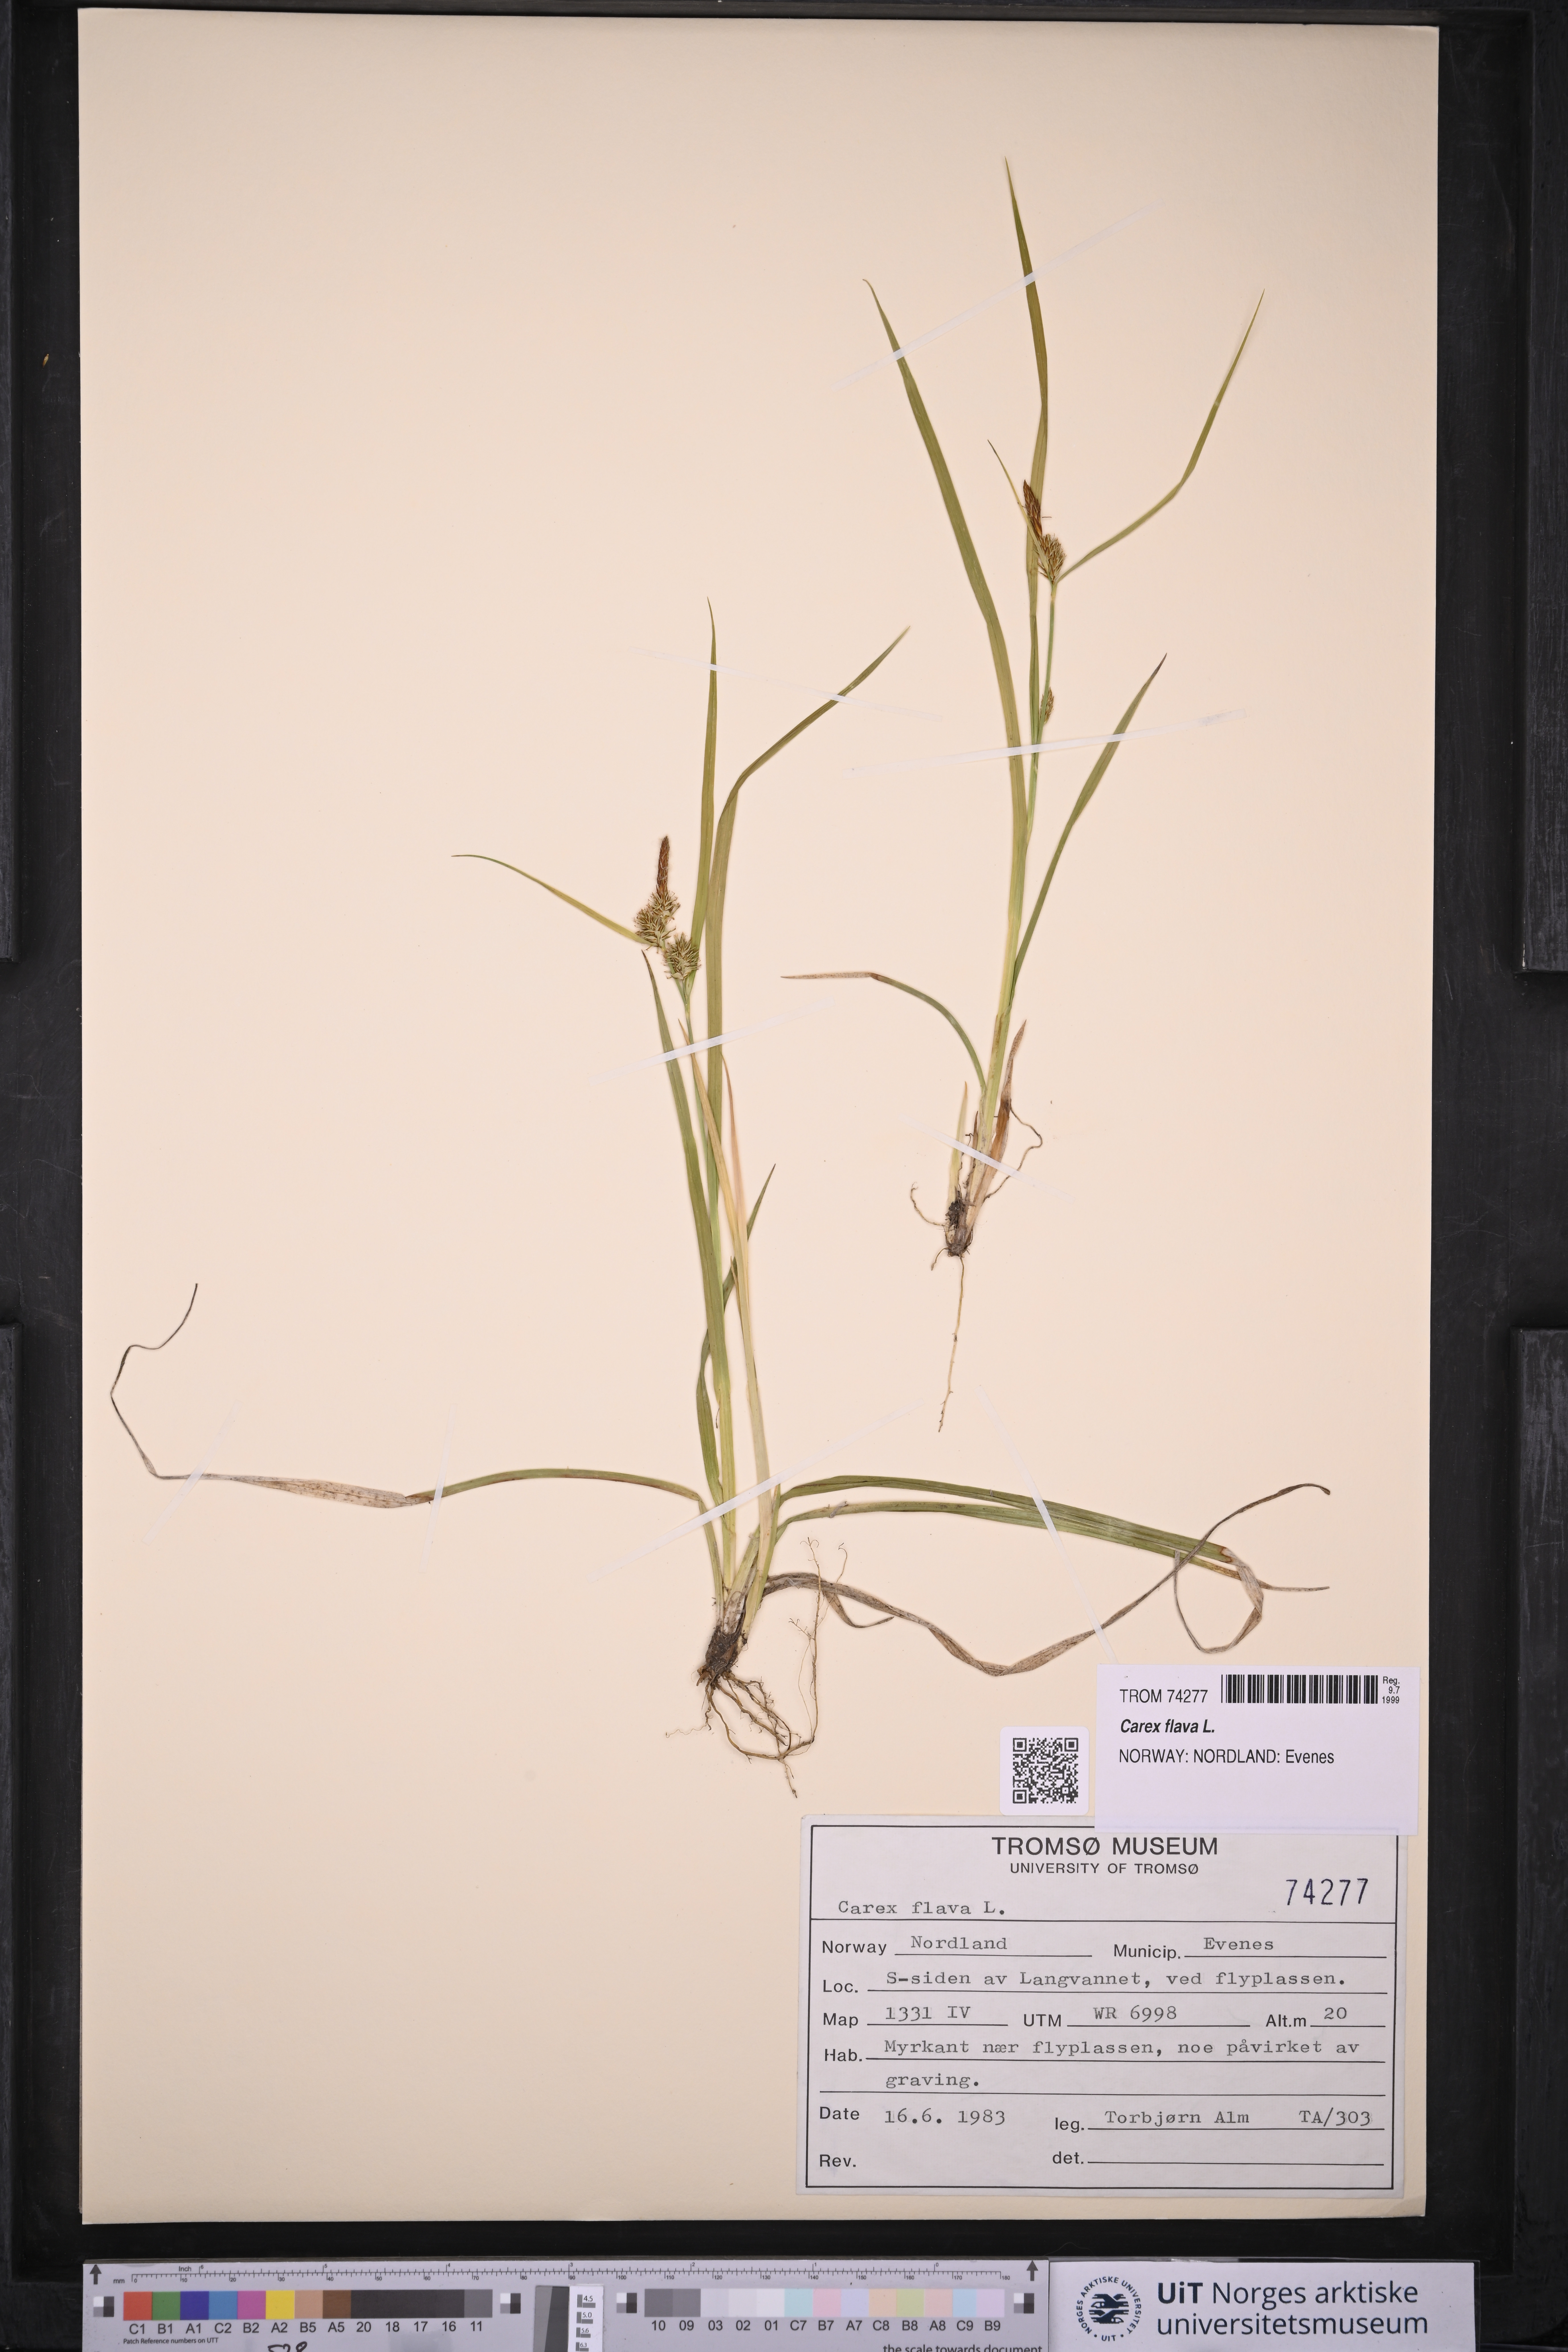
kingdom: Plantae
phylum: Tracheophyta
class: Liliopsida
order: Poales
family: Cyperaceae
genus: Carex
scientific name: Carex flava
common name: Large yellow-sedge
